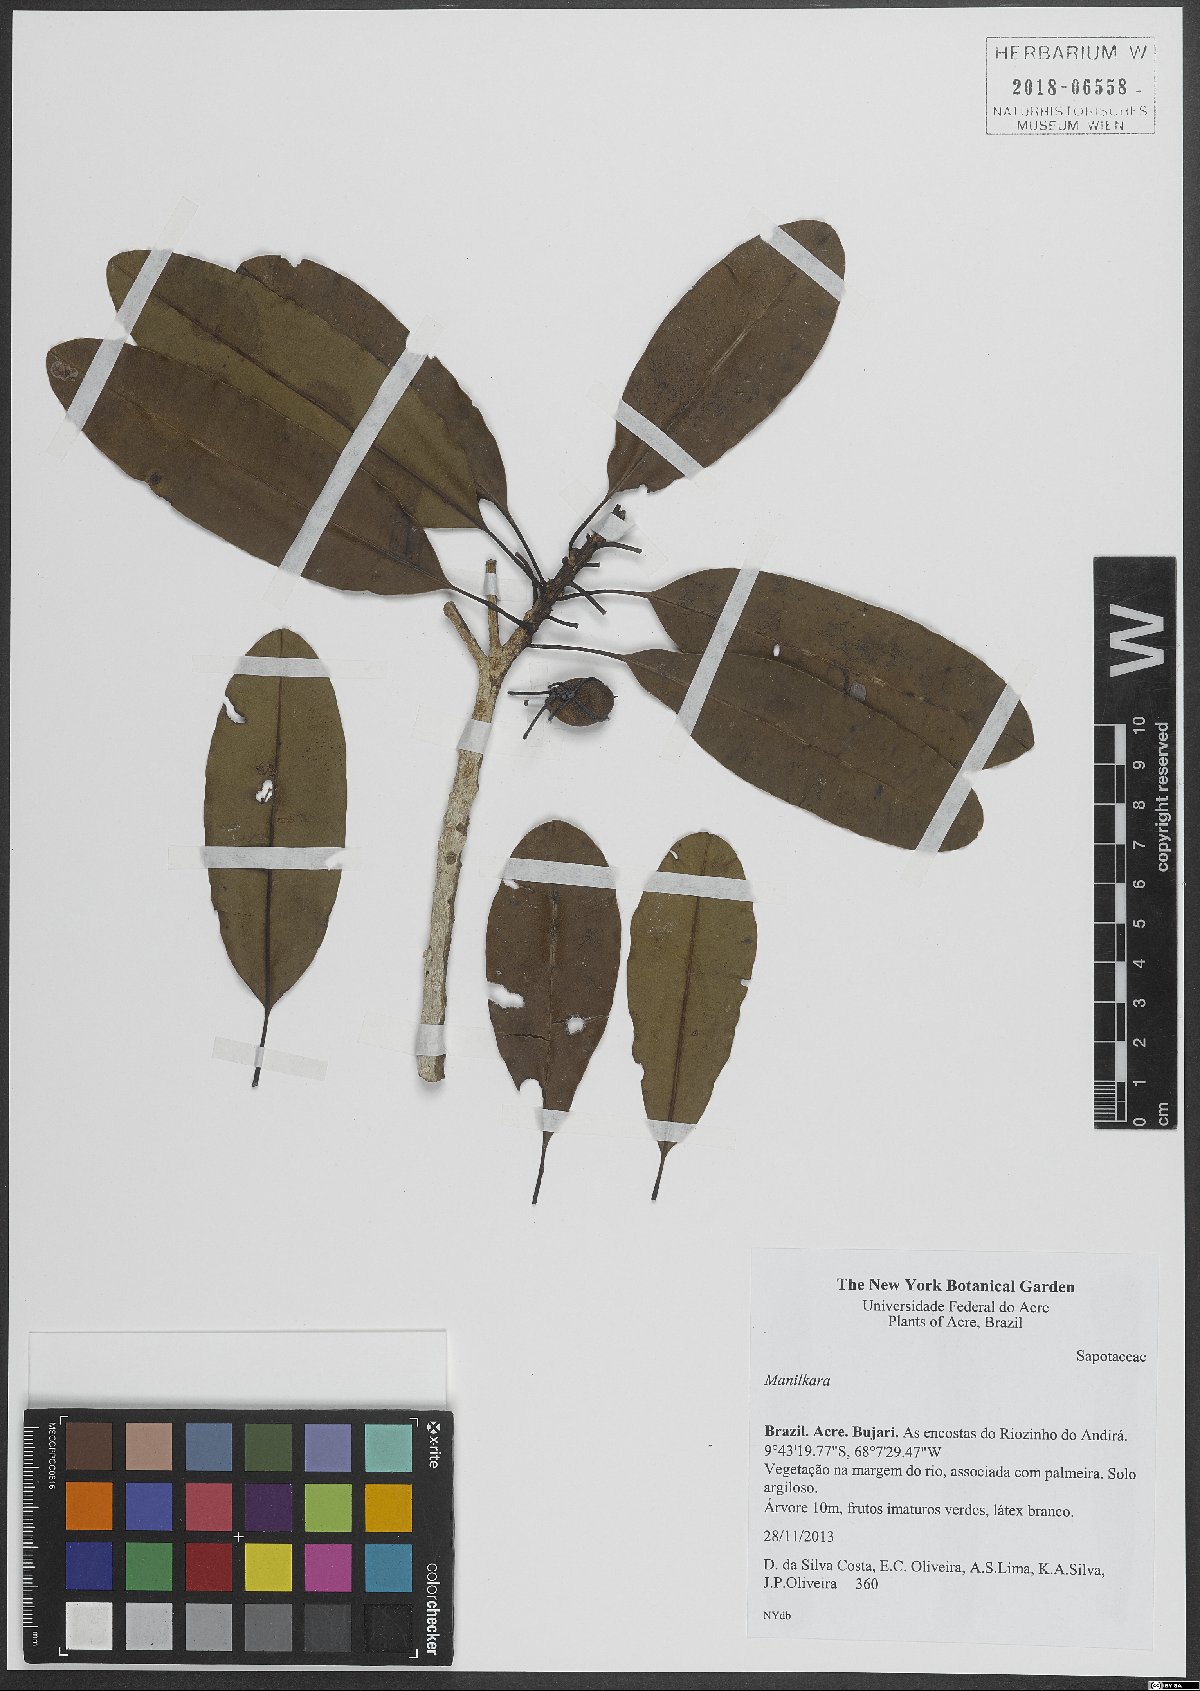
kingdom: Plantae
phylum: Tracheophyta
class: Magnoliopsida
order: Ericales
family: Sapotaceae
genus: Manilkara
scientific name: Manilkara
